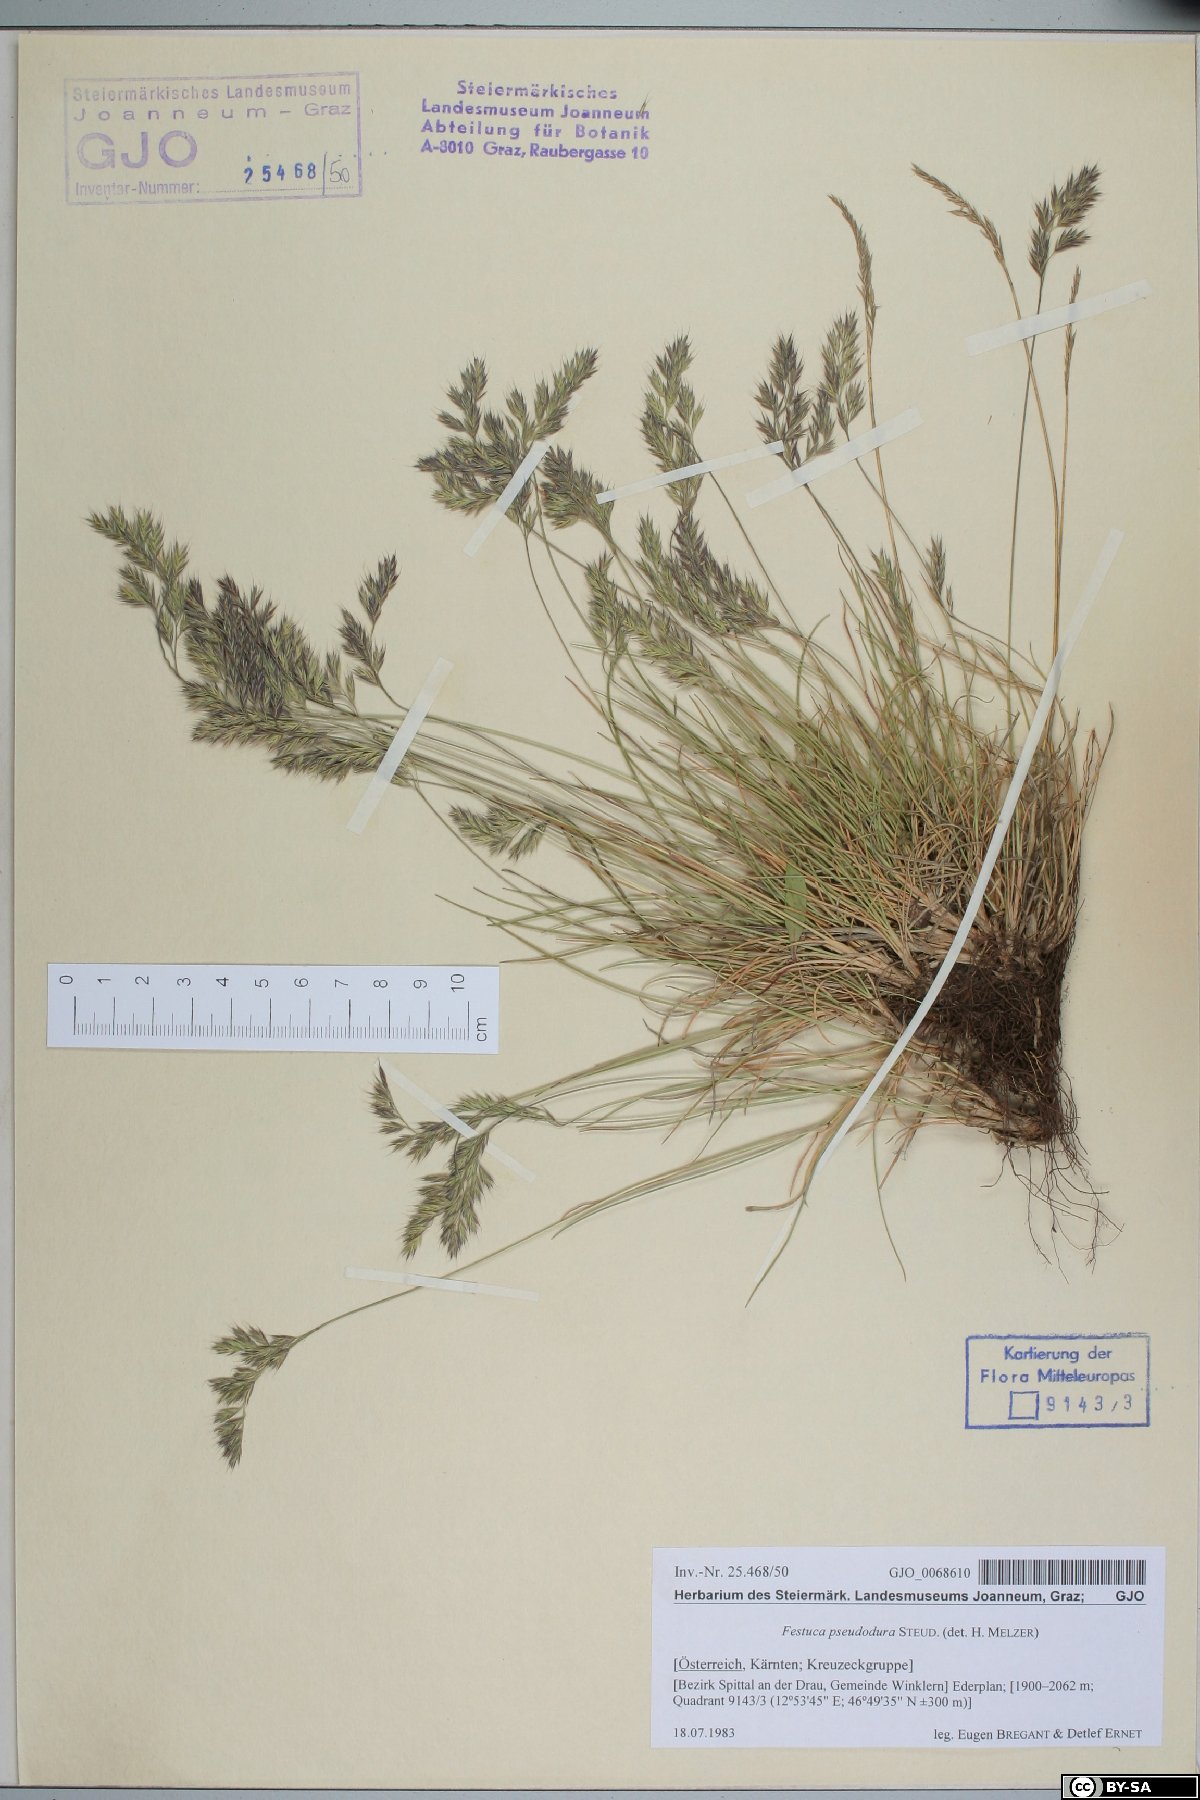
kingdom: Plantae
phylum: Tracheophyta
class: Liliopsida
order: Poales
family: Poaceae
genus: Festuca
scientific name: Festuca pseudodura
